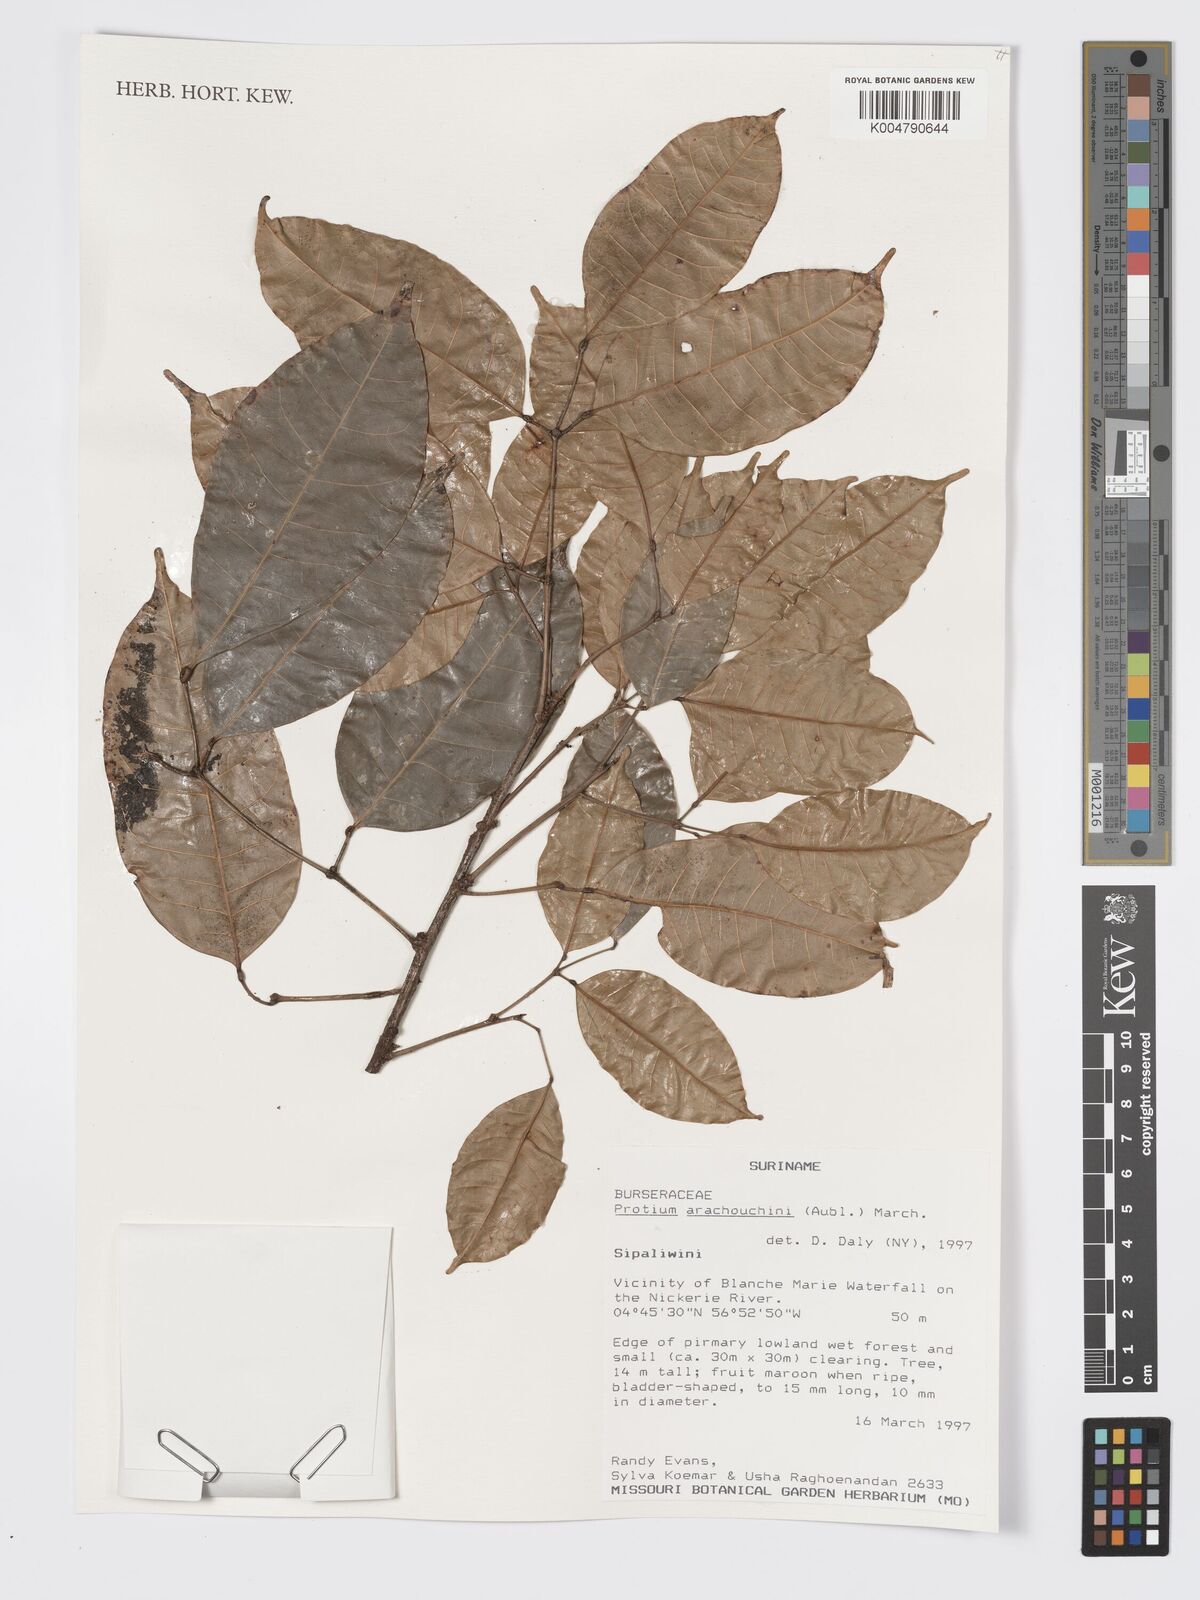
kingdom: Plantae
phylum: Tracheophyta
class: Magnoliopsida
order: Sapindales
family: Burseraceae
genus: Protium
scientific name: Protium aracouchini
